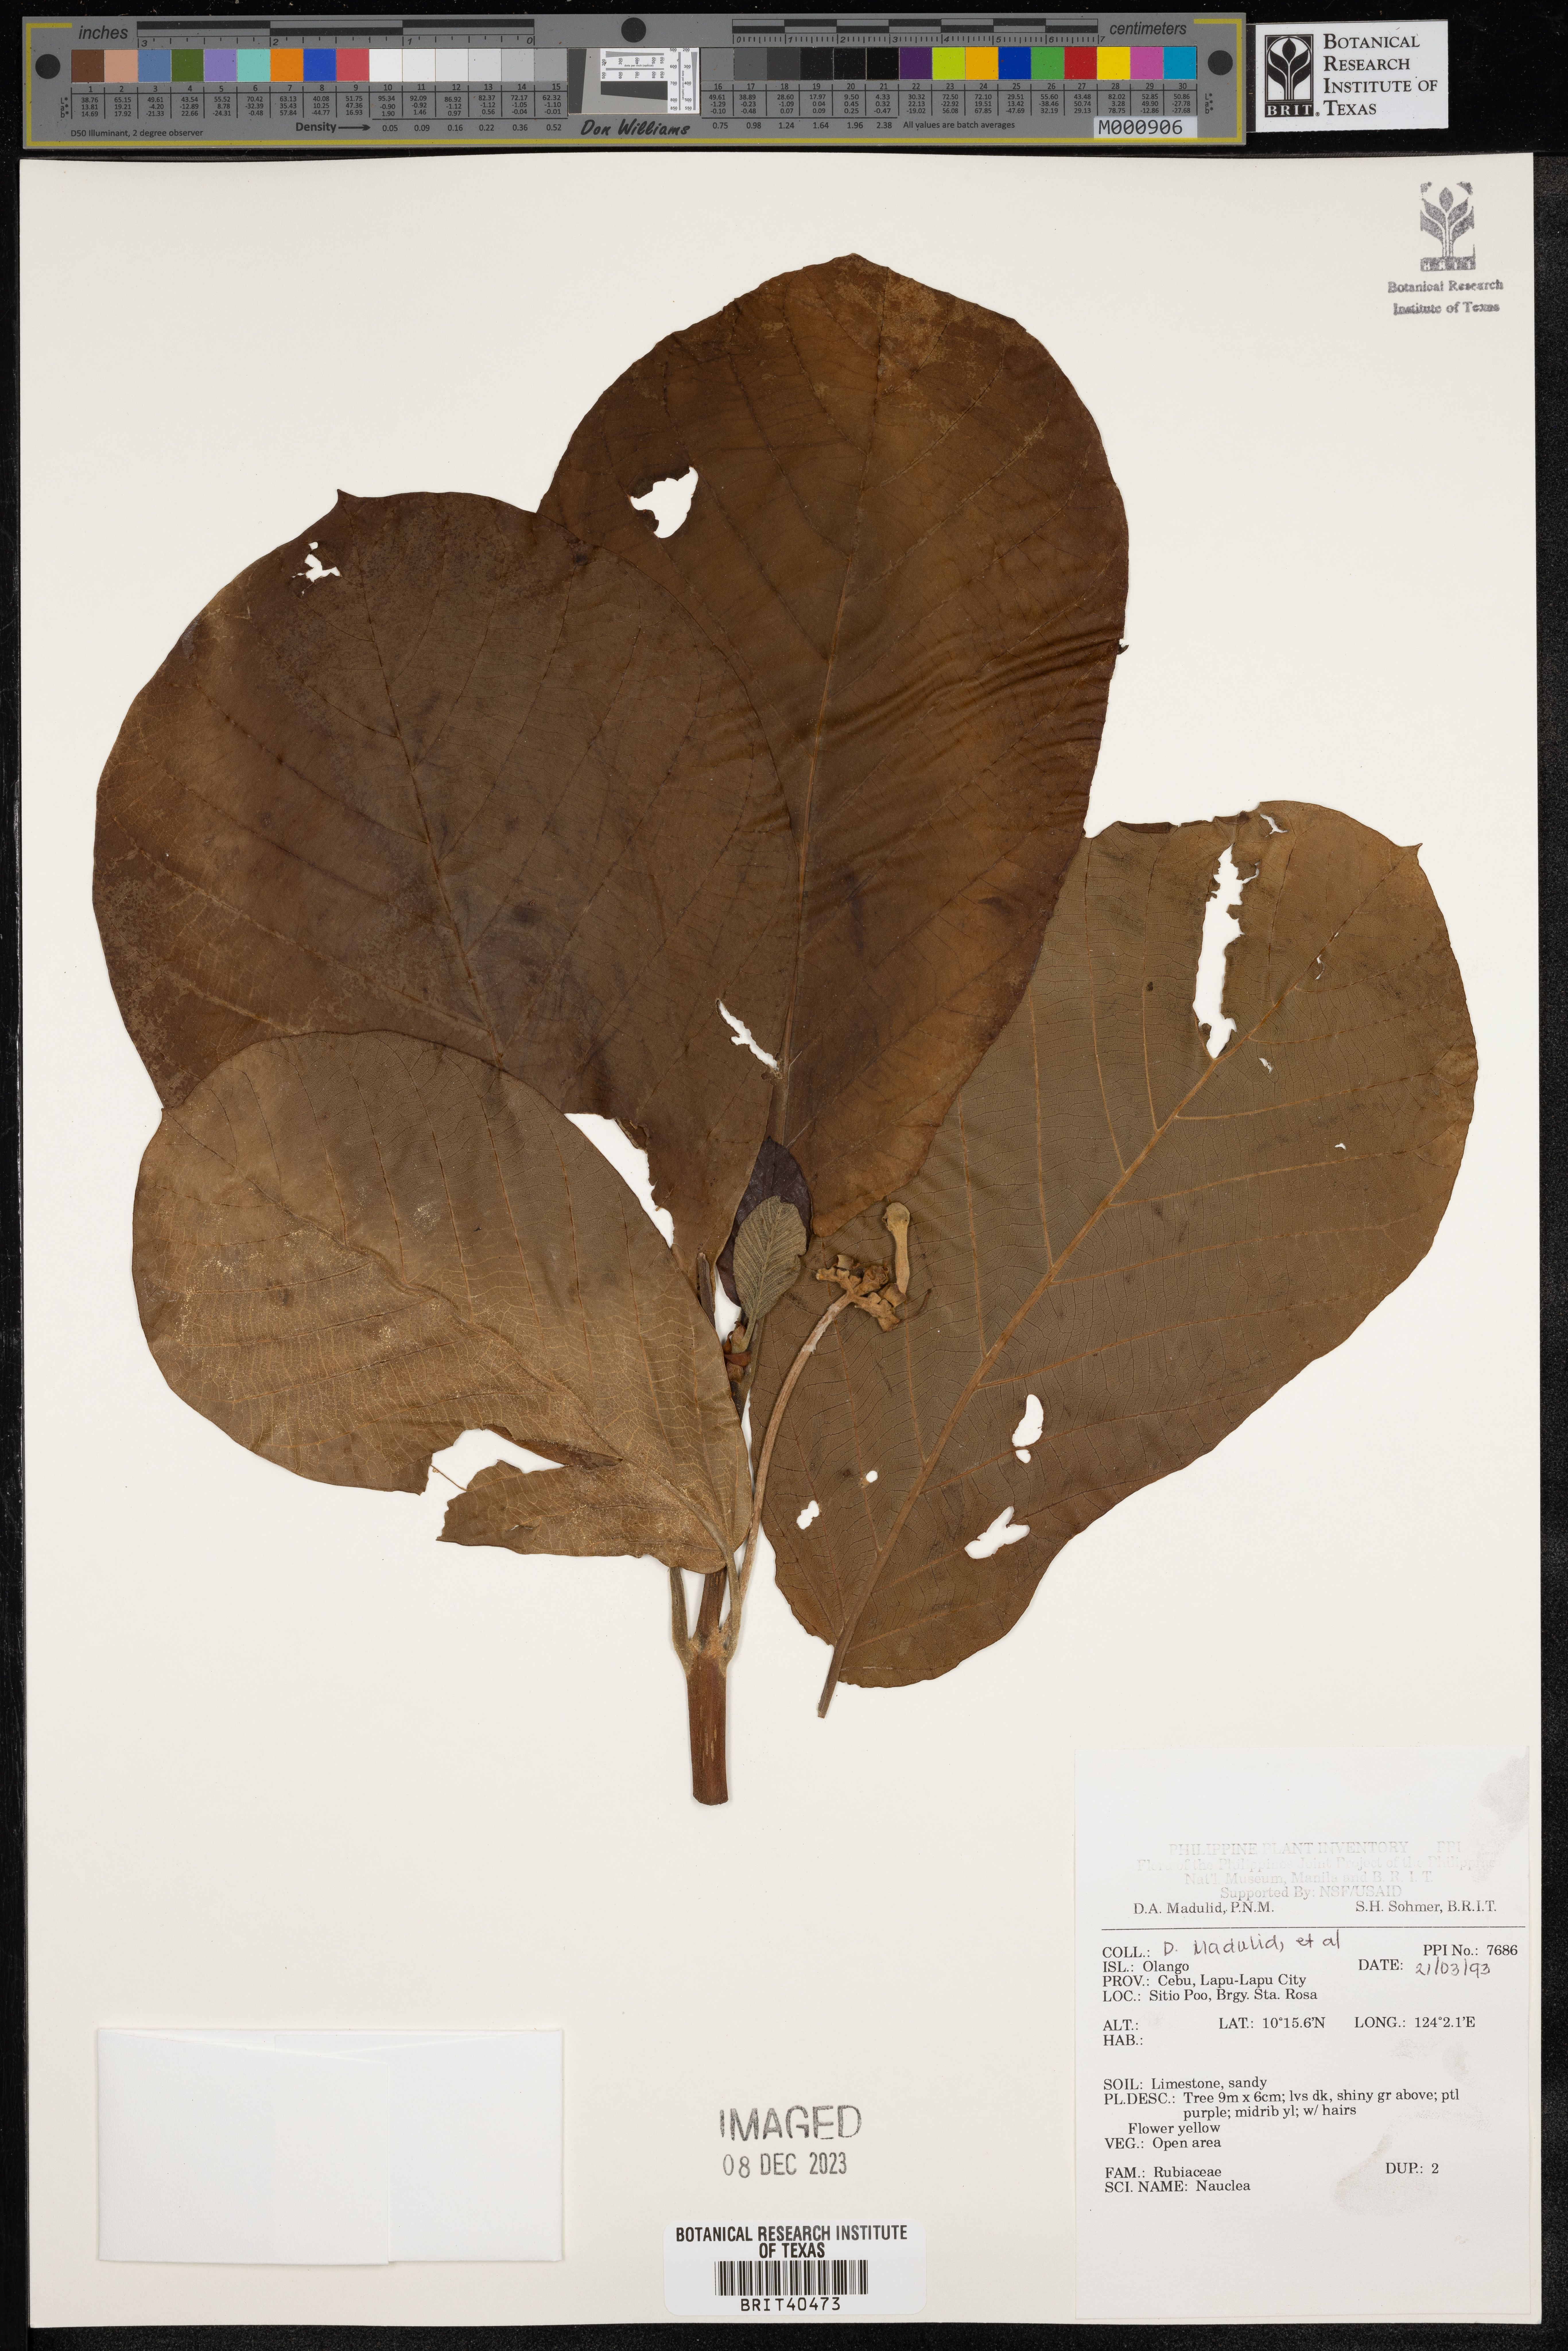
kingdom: Plantae
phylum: Tracheophyta
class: Magnoliopsida
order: Gentianales
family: Rubiaceae
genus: Nauclea
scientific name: Nauclea
